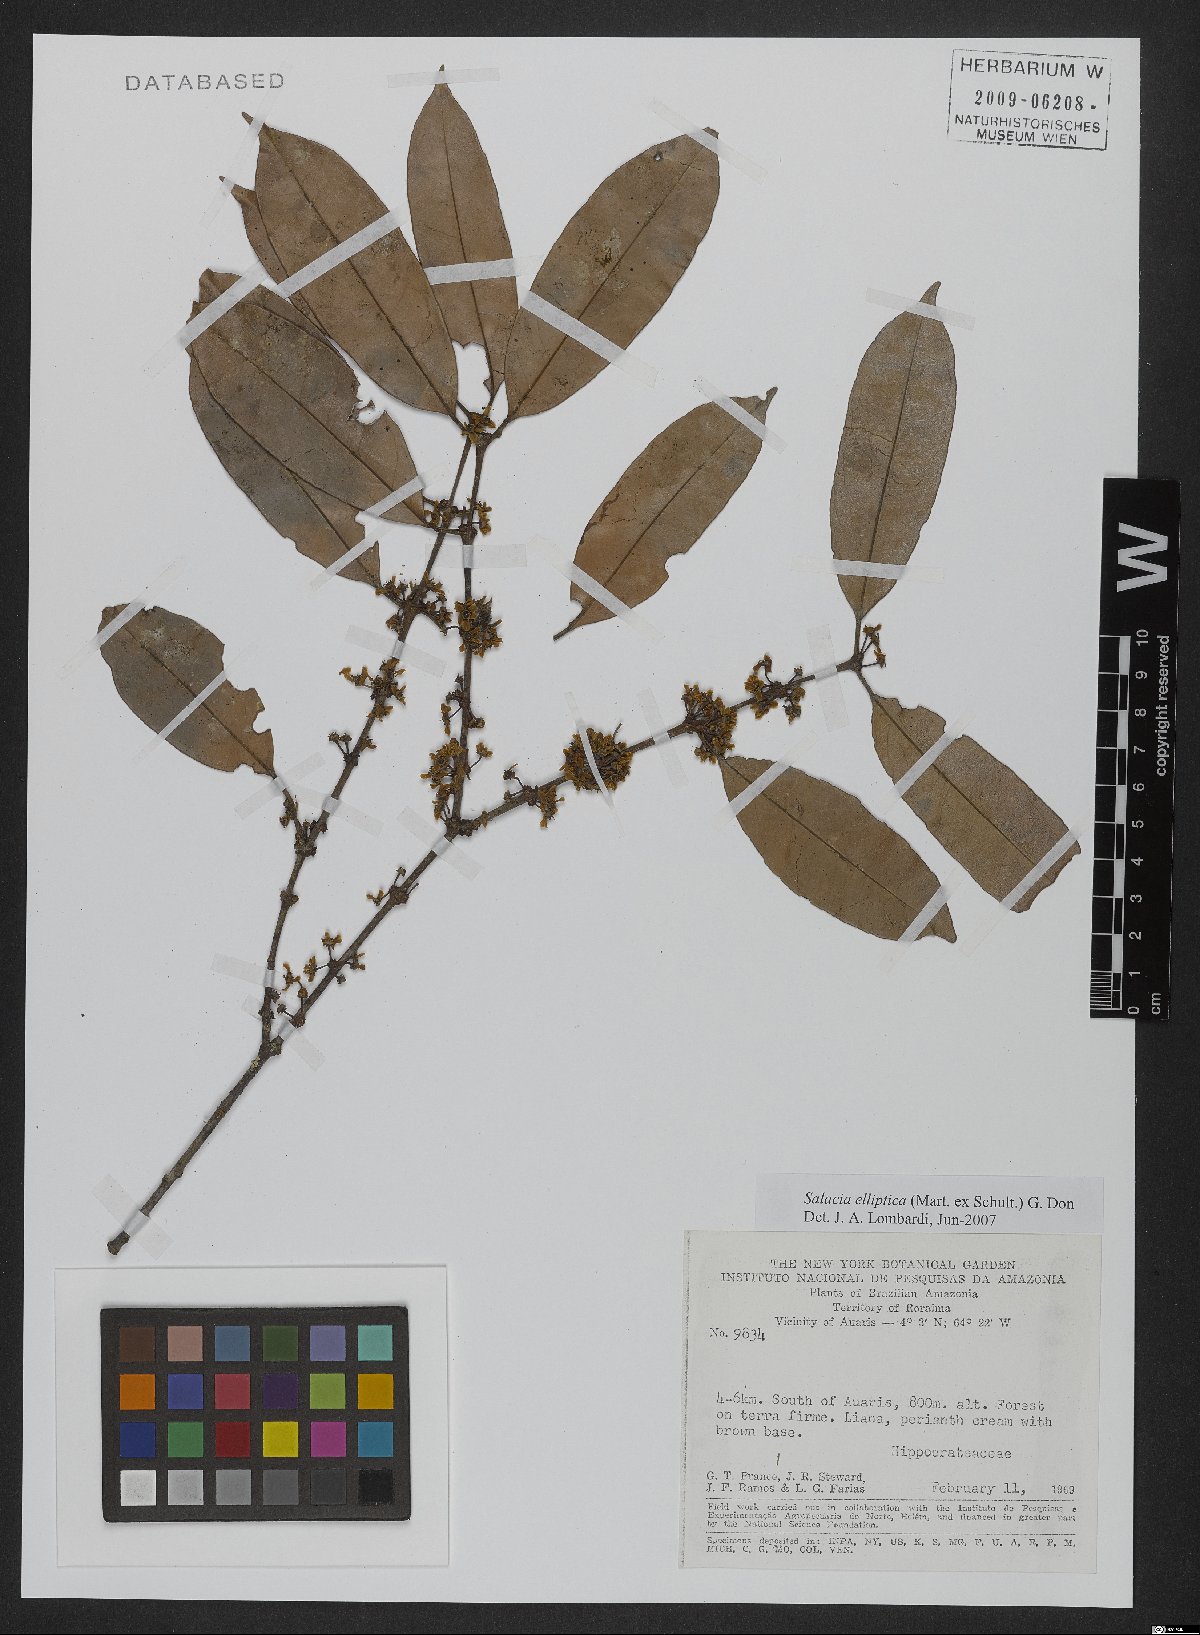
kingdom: Plantae
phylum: Tracheophyta
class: Magnoliopsida
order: Celastrales
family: Celastraceae
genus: Salacia
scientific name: Salacia elliptica
